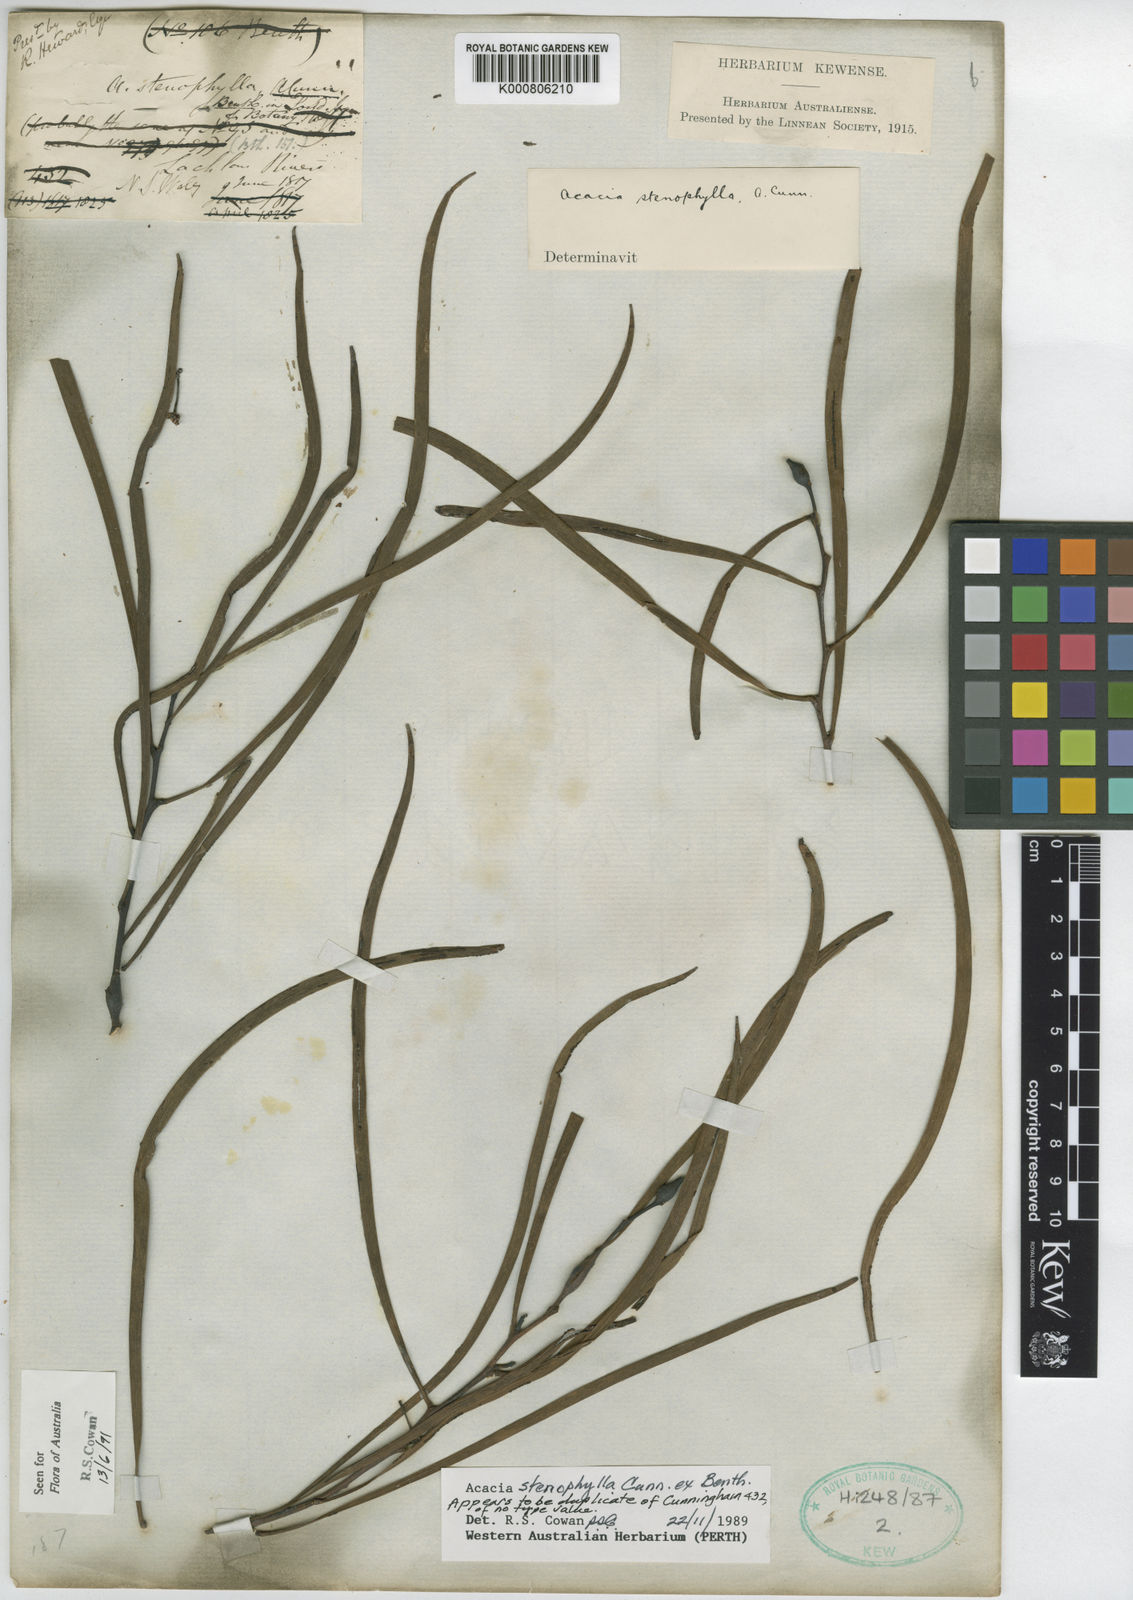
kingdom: Plantae
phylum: Tracheophyta
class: Magnoliopsida
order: Fabales
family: Fabaceae
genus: Acacia
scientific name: Acacia stenophylla
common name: River cooba
